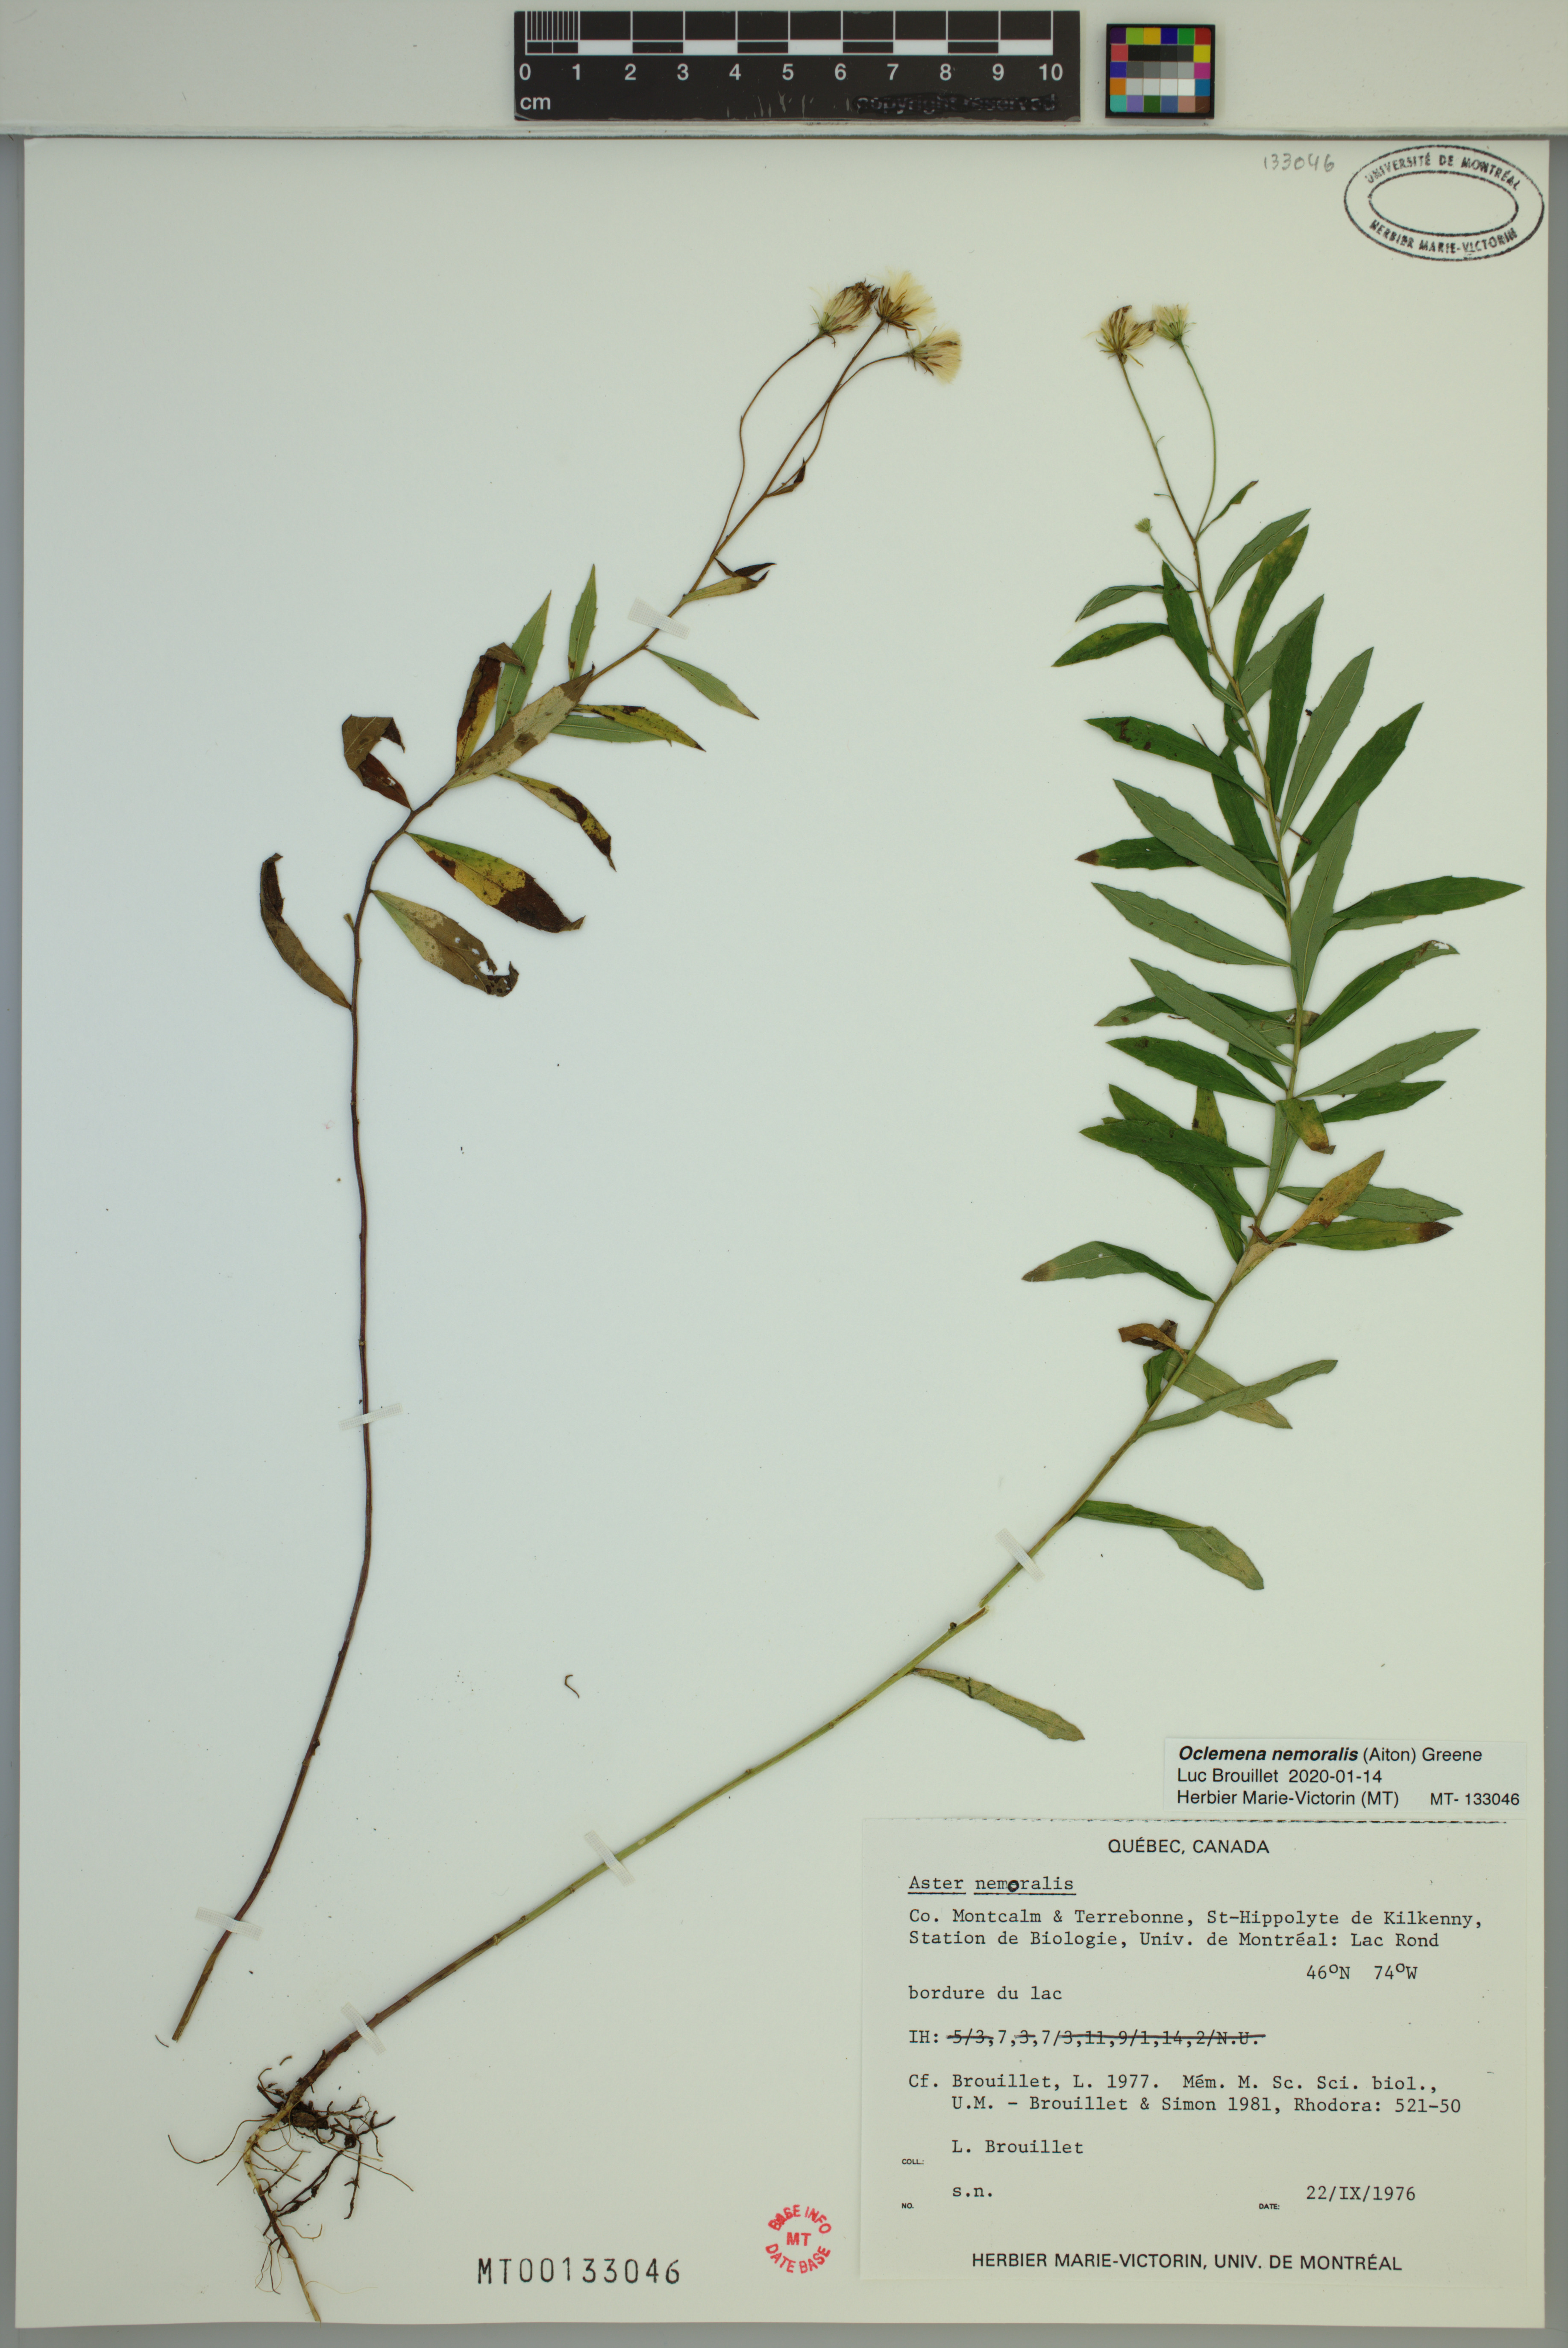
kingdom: Plantae
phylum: Tracheophyta
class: Magnoliopsida
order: Asterales
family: Asteraceae
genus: Oclemena
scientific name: Oclemena nemoralis
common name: Bog aster
